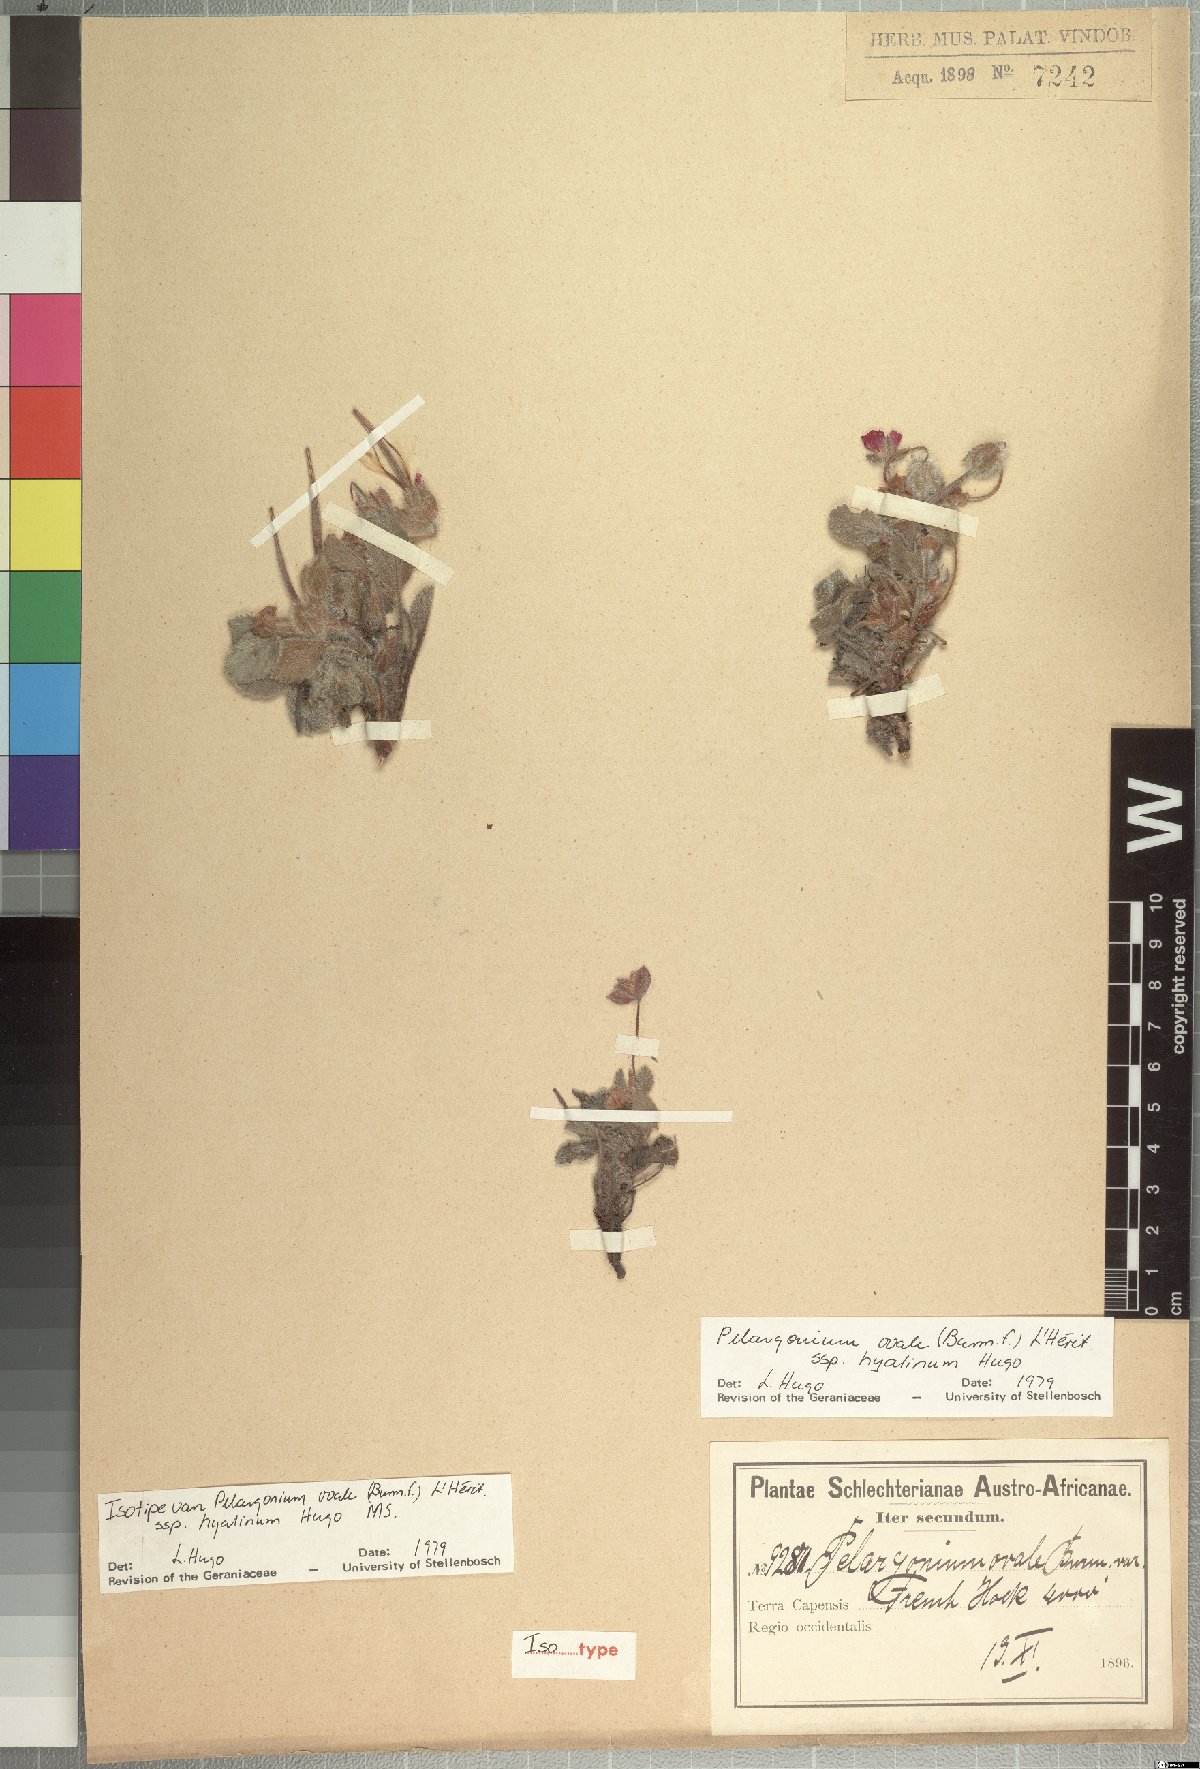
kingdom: Plantae
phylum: Tracheophyta
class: Magnoliopsida
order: Geraniales
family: Geraniaceae
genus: Pelargonium
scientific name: Pelargonium ovale
